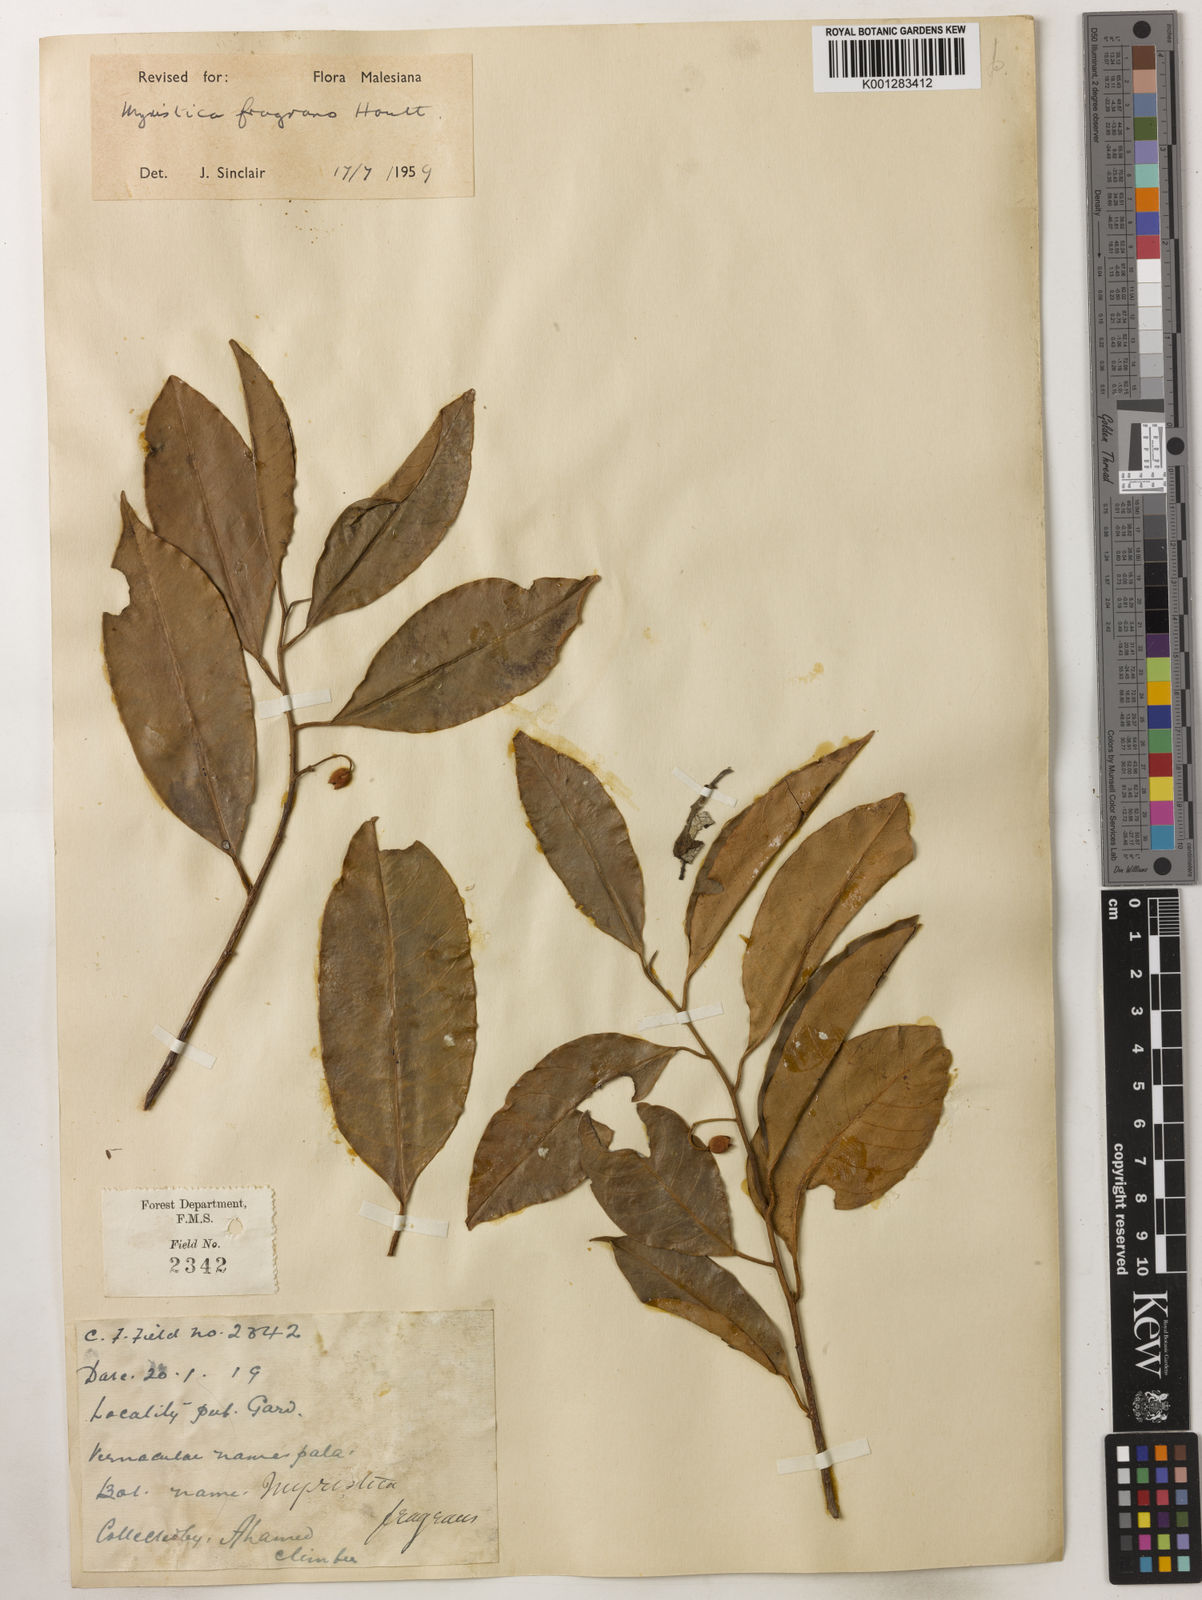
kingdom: Plantae
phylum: Tracheophyta
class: Magnoliopsida
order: Magnoliales
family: Myristicaceae
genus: Myristica
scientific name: Myristica fragrans
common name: Nutmeg
